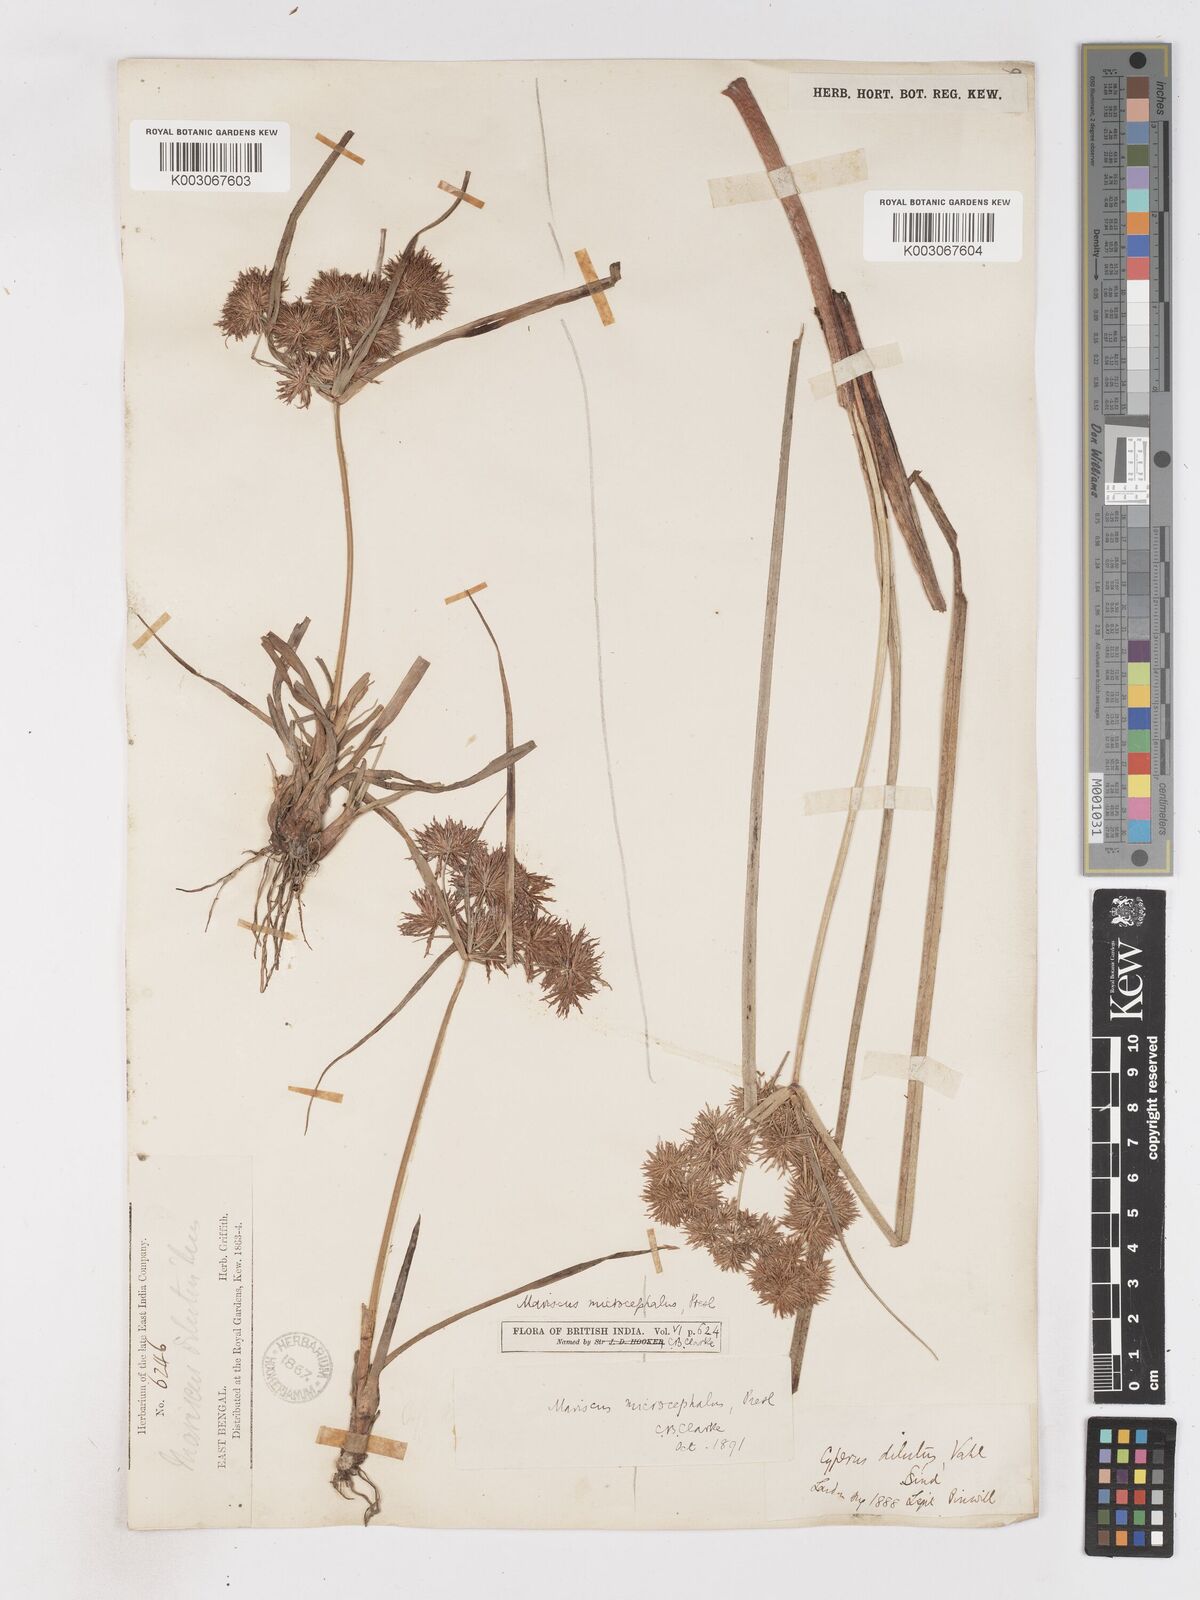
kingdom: Plantae
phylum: Tracheophyta
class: Liliopsida
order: Poales
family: Cyperaceae
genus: Cyperus
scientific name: Cyperus compactus
